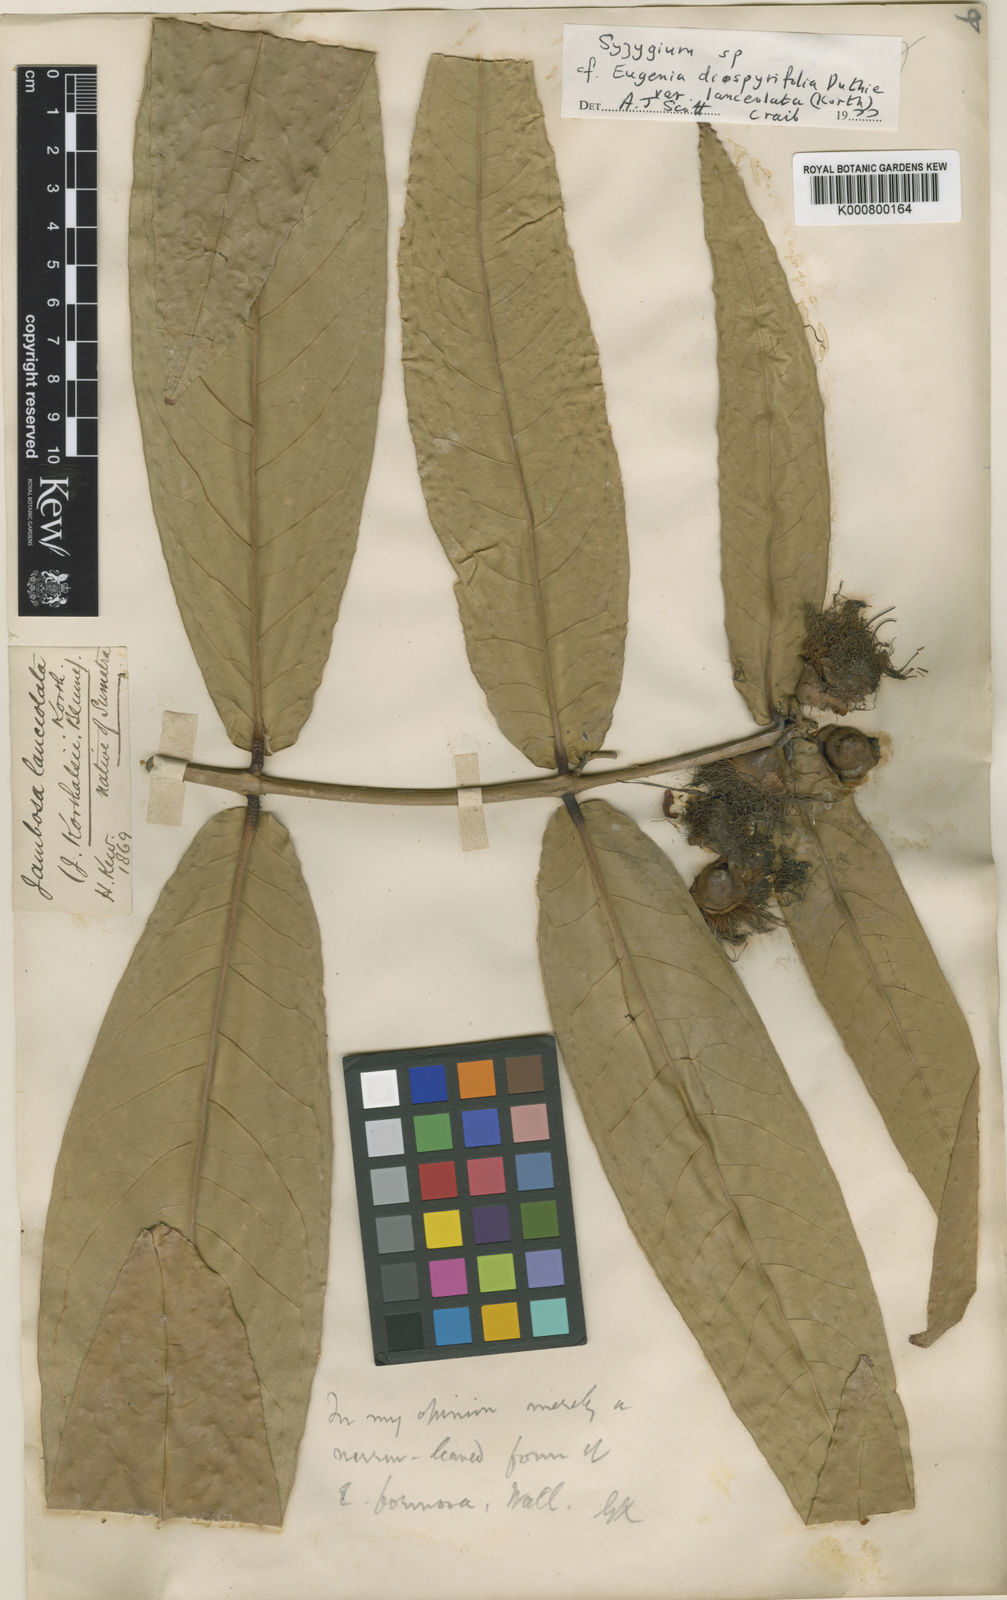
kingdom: Plantae
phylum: Tracheophyta
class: Magnoliopsida
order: Myrtales
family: Myrtaceae
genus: Syzygium
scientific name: Syzygium insigne
